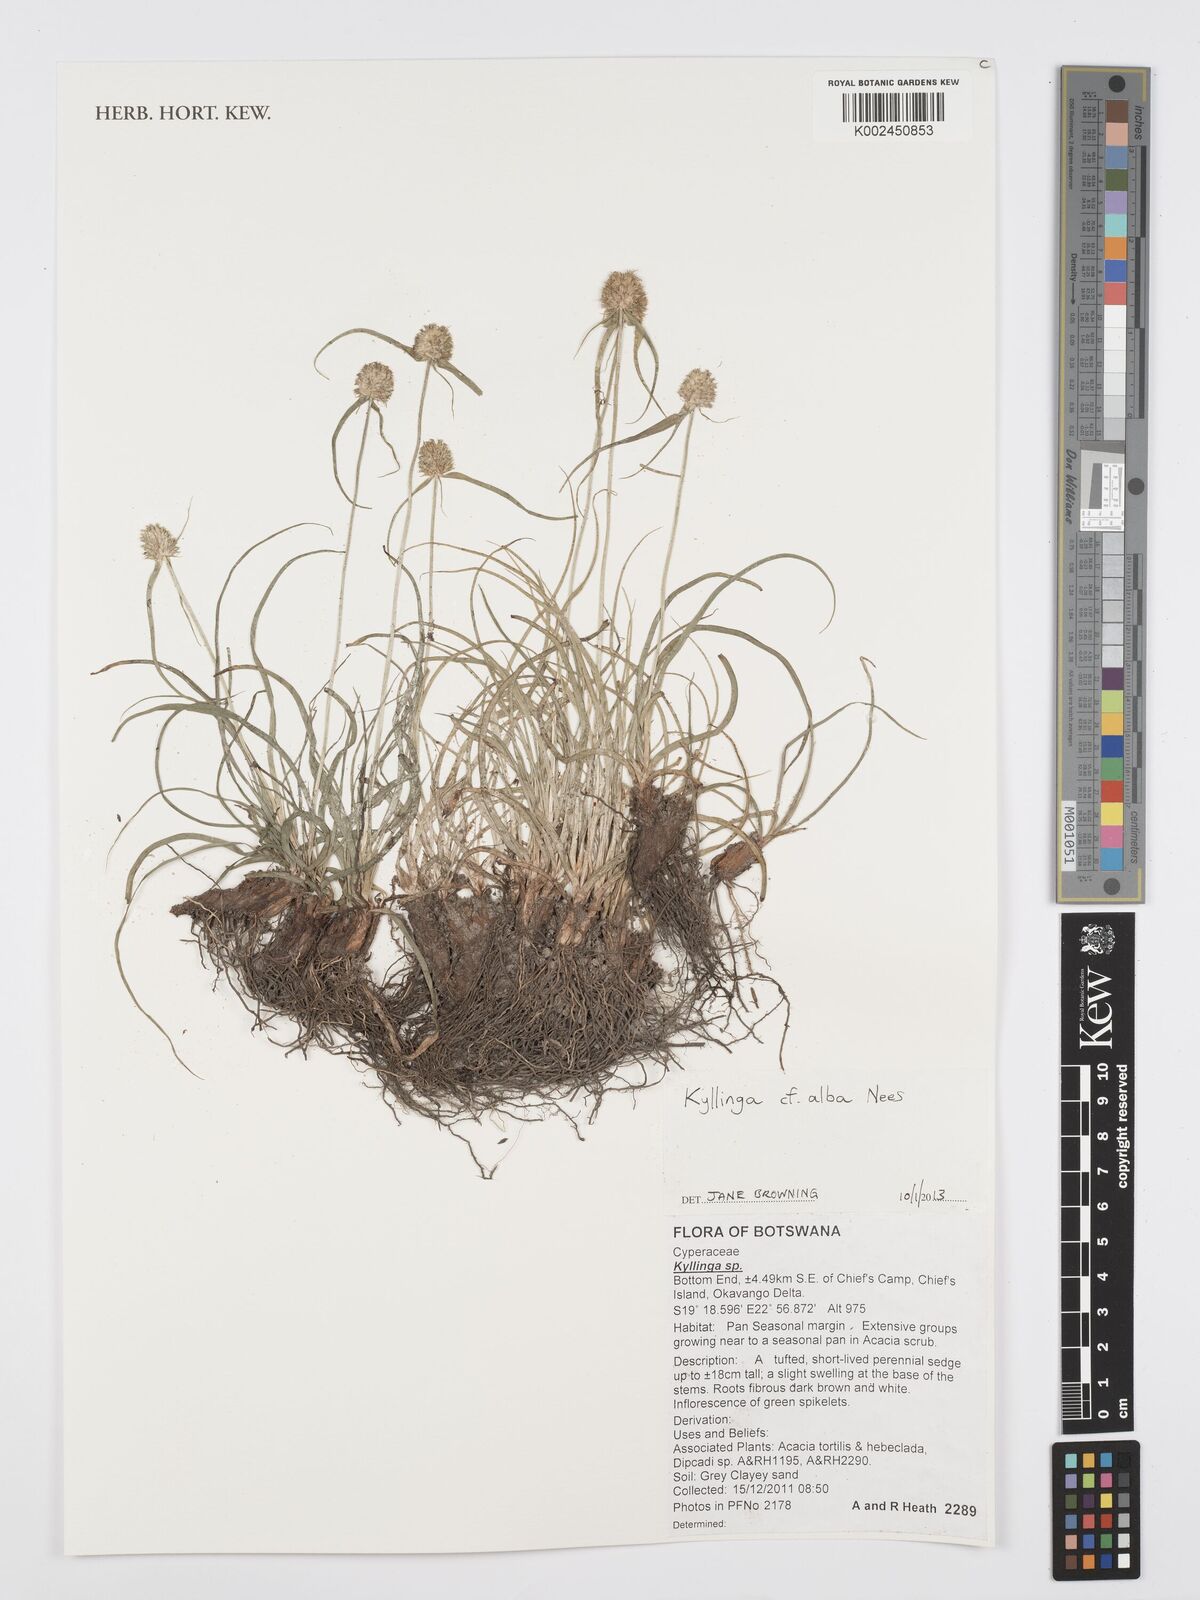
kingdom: Plantae
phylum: Tracheophyta
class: Liliopsida
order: Poales
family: Cyperaceae
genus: Cyperus
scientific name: Cyperus
